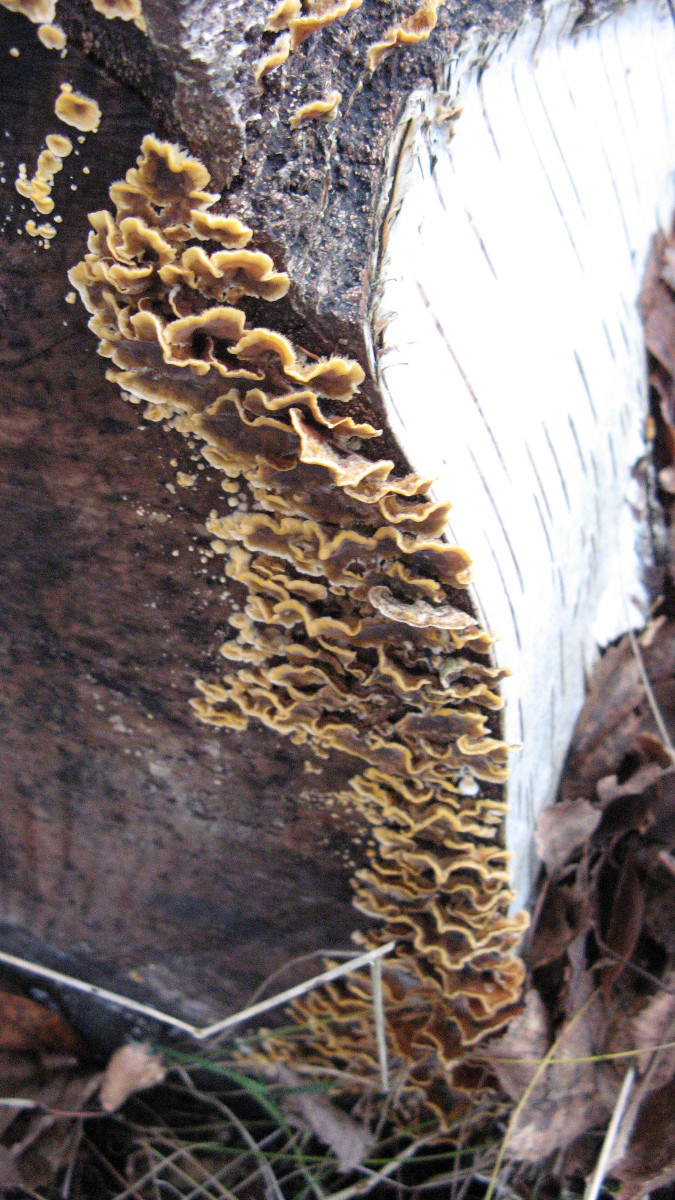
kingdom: Fungi
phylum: Basidiomycota
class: Agaricomycetes
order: Russulales
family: Stereaceae
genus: Stereum
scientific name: Stereum hirsutum
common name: håret lædersvamp
